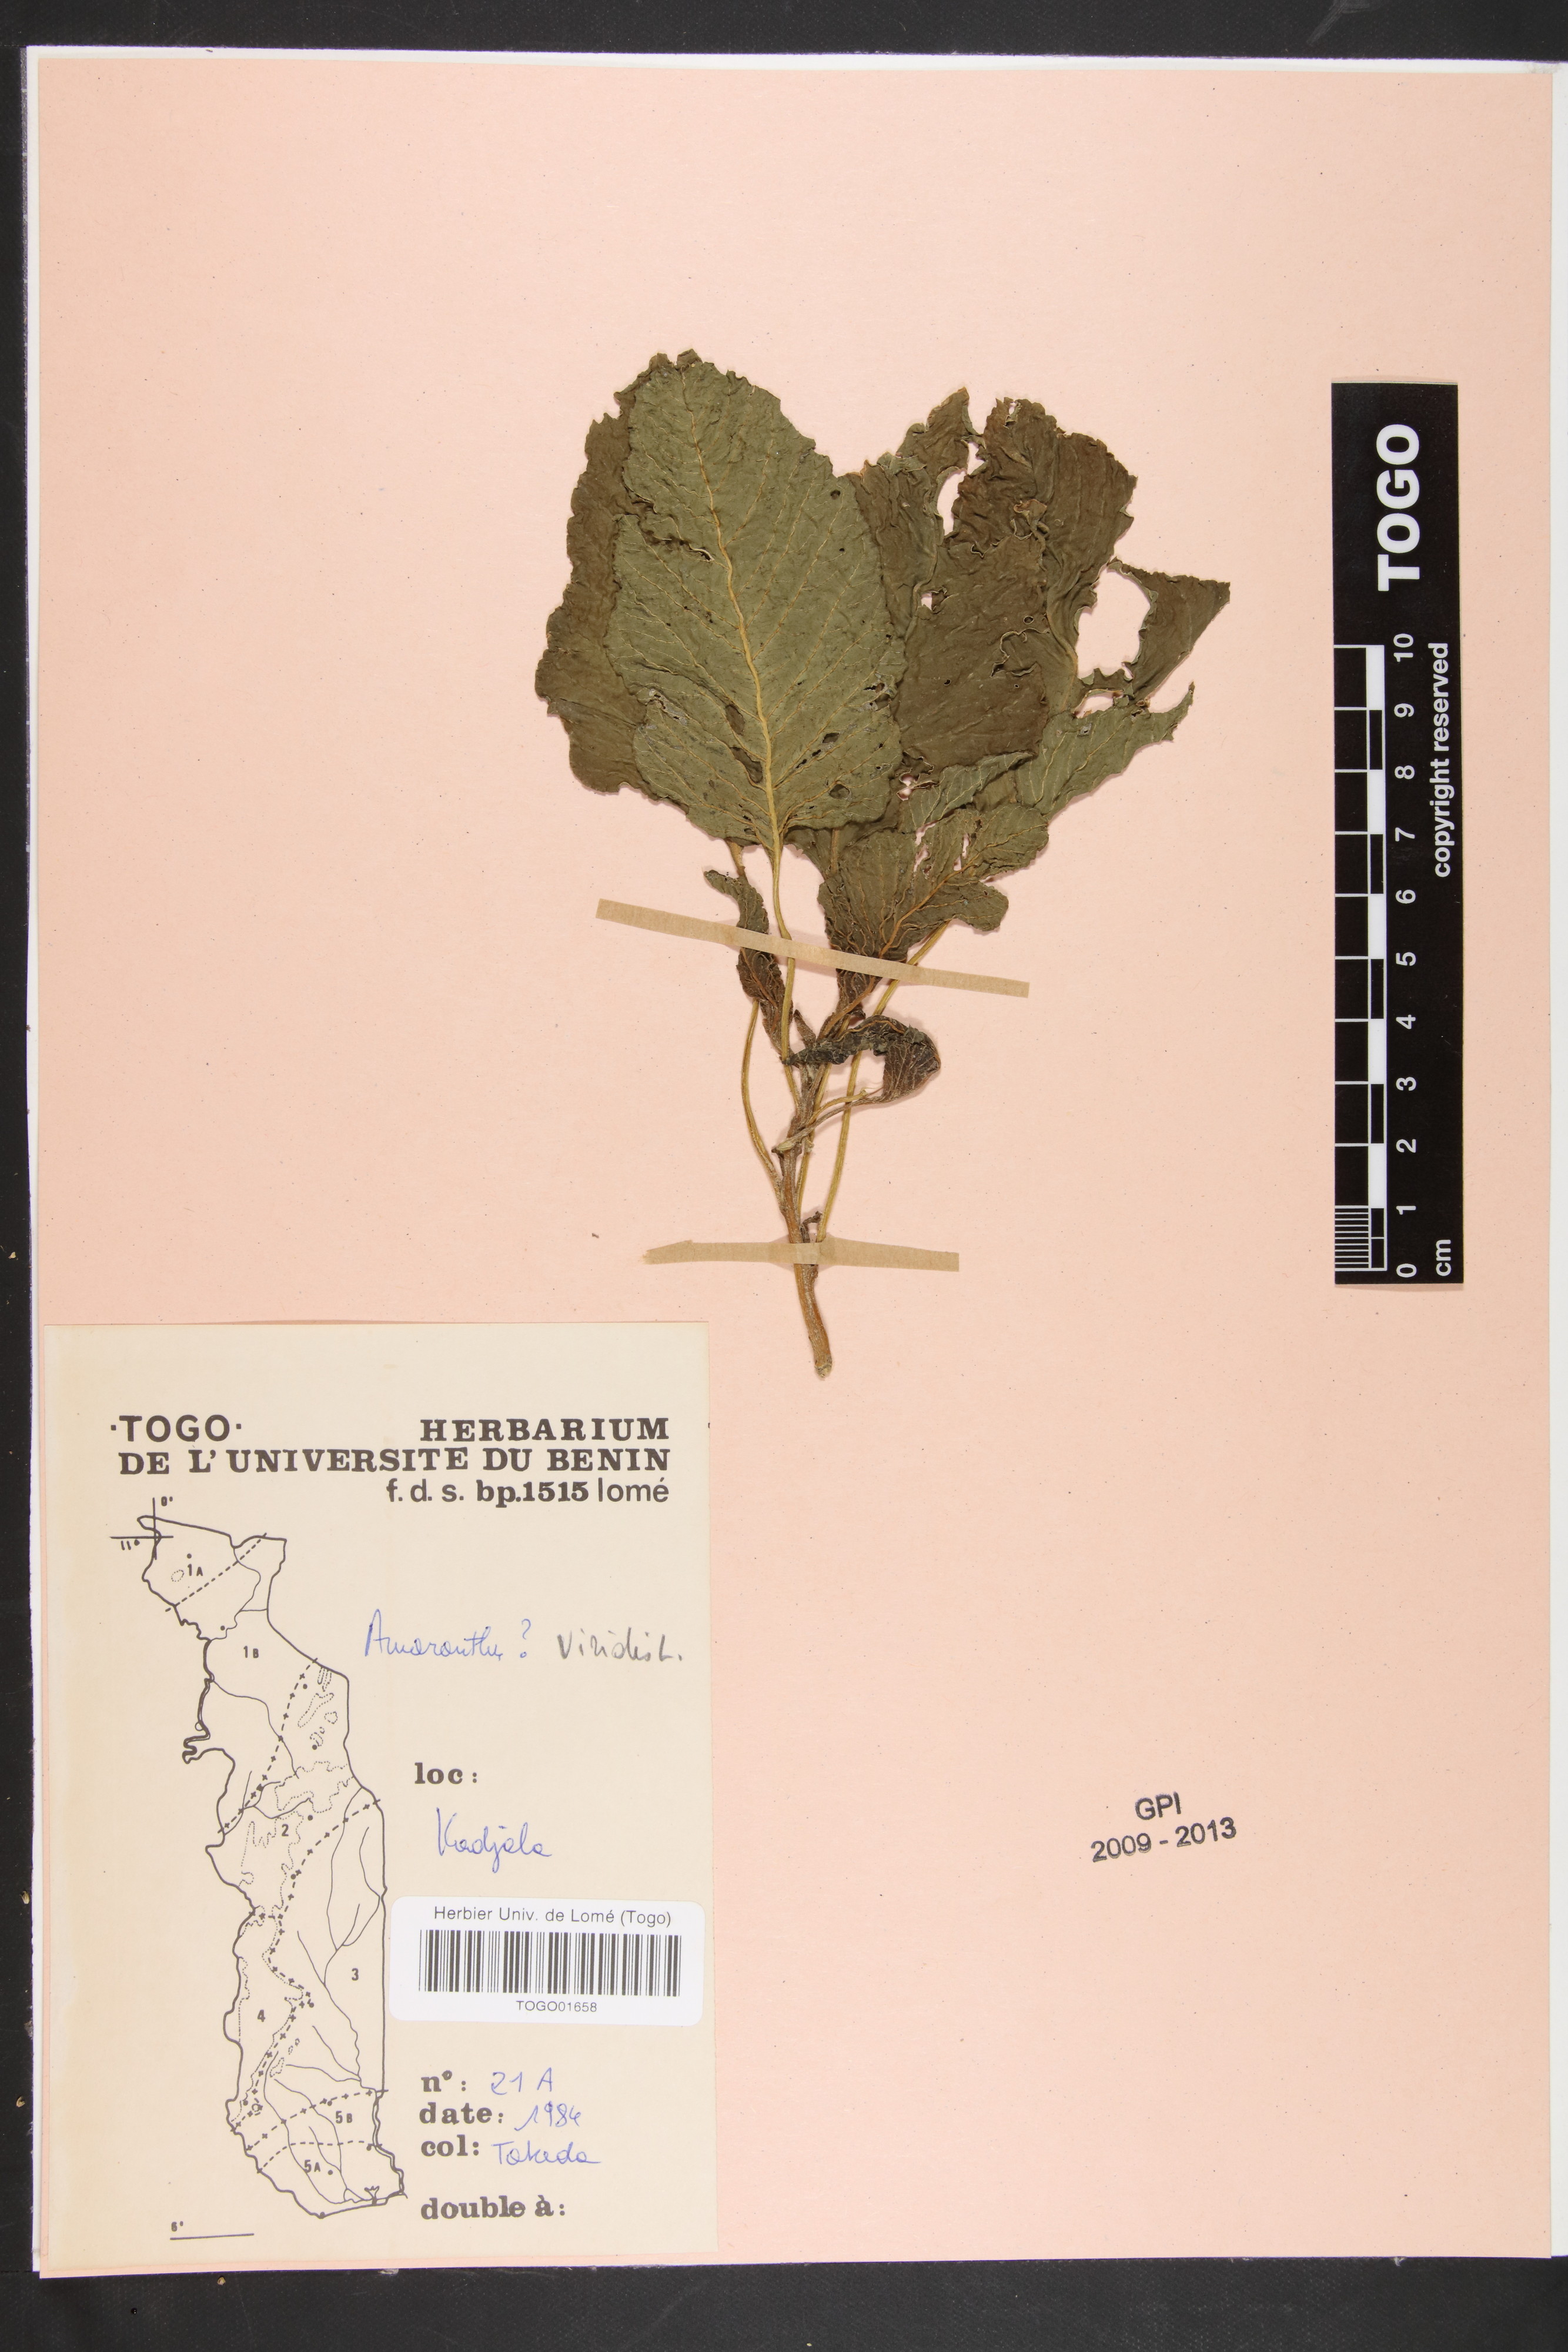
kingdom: Plantae
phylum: Tracheophyta
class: Magnoliopsida
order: Caryophyllales
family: Amaranthaceae
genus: Amaranthus
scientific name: Amaranthus viridis
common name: Slender amaranth
